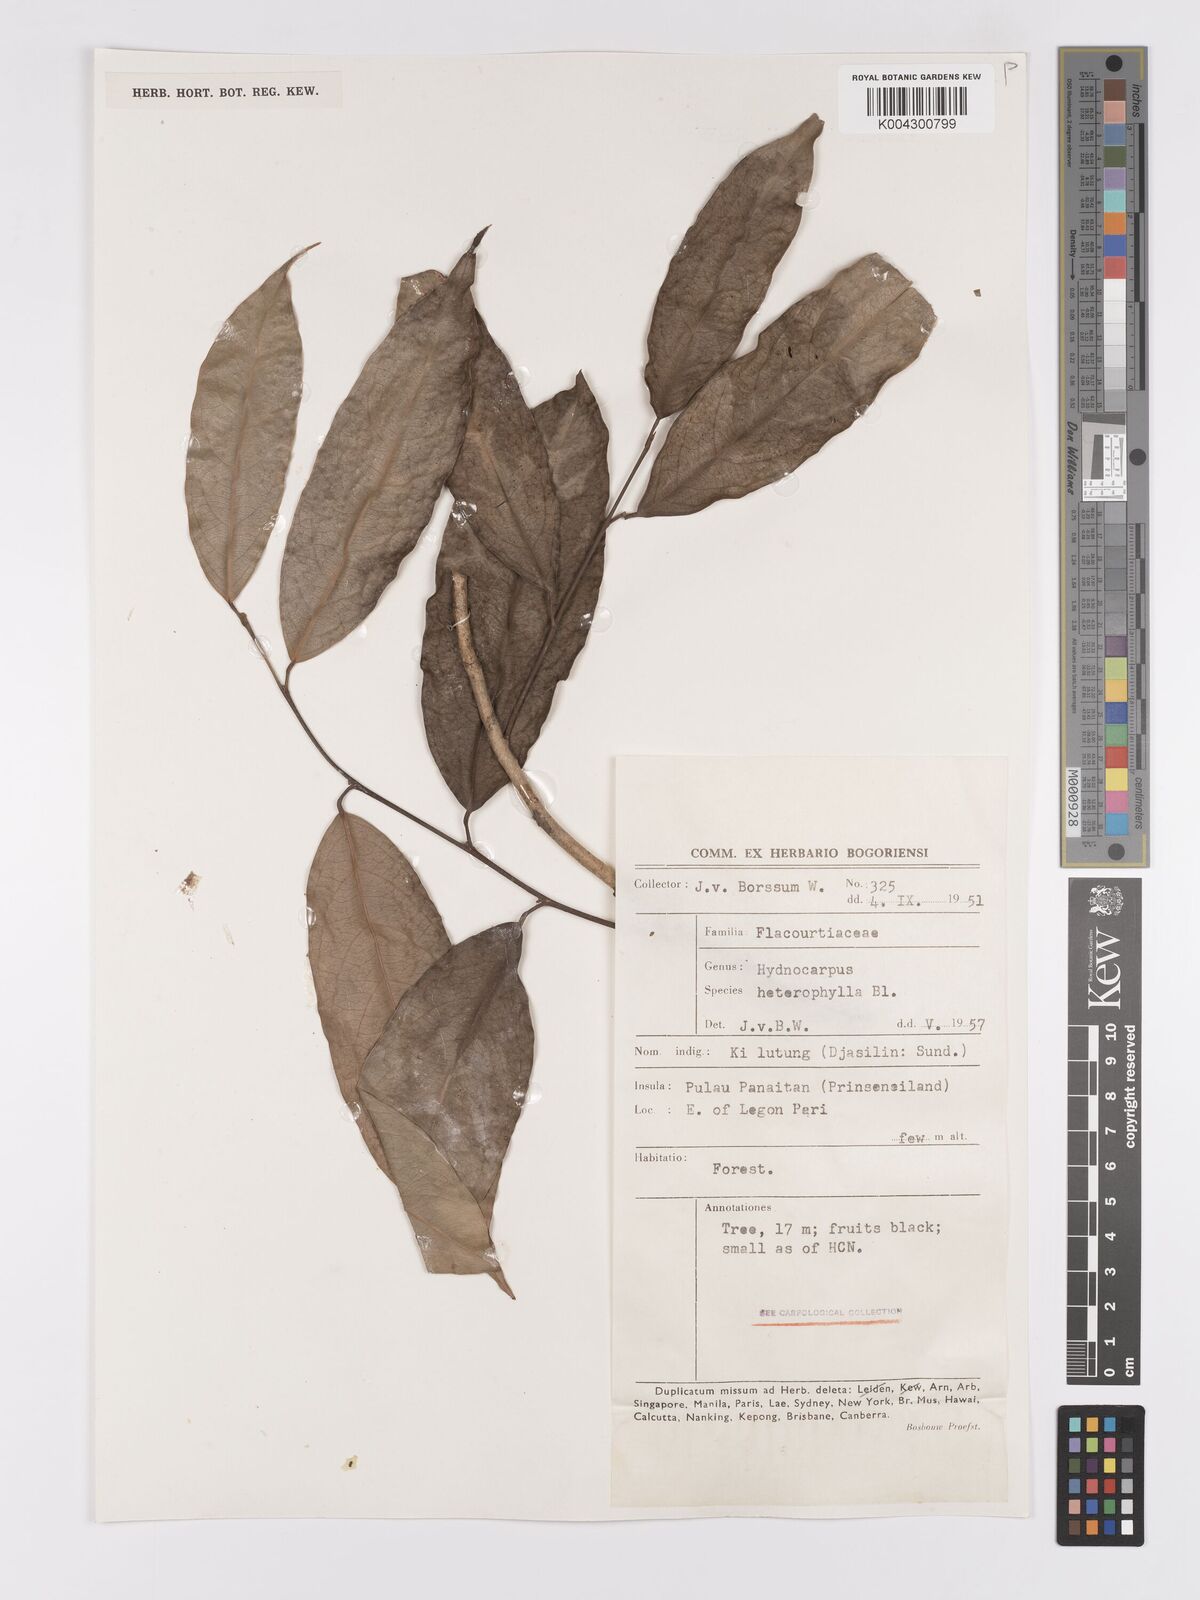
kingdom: Plantae
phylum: Tracheophyta
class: Magnoliopsida
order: Malpighiales
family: Achariaceae
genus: Hydnocarpus
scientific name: Hydnocarpus heterophyllus
